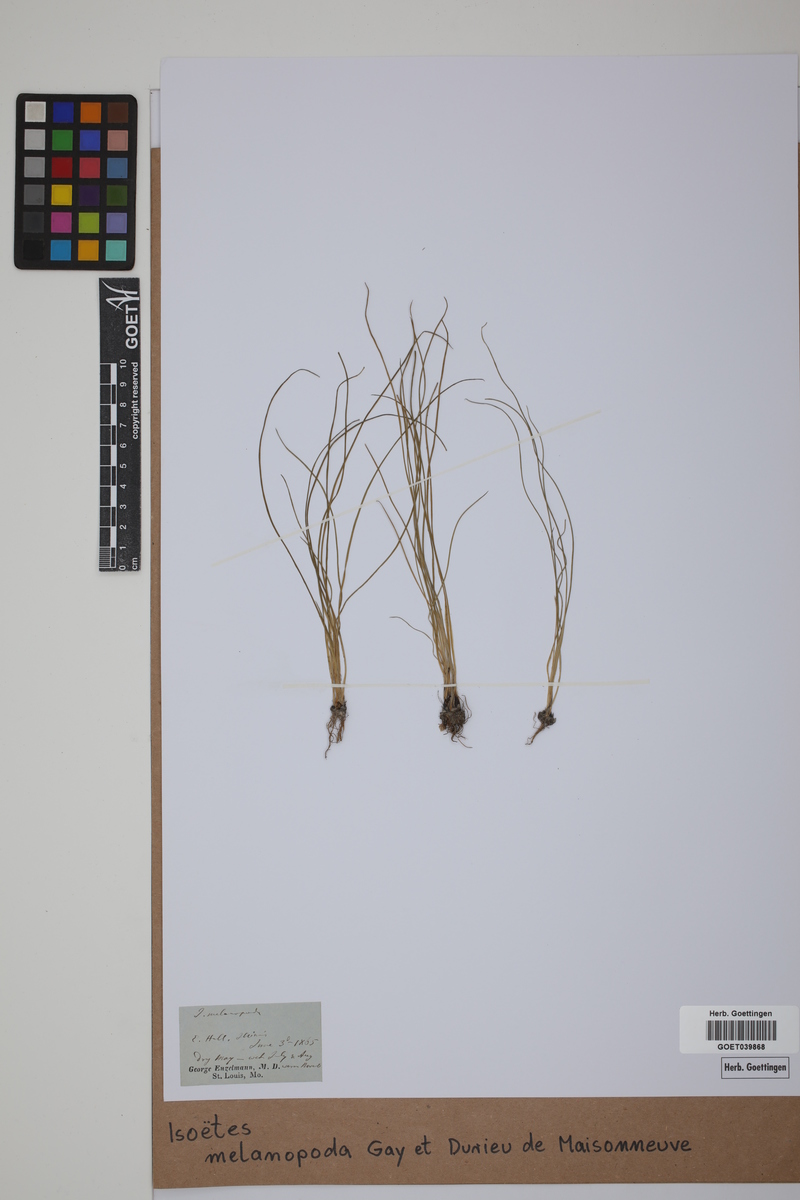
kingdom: Plantae
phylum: Tracheophyta
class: Lycopodiopsida
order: Isoetales
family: Isoetaceae
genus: Isoetes
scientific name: Isoetes melanopoda
